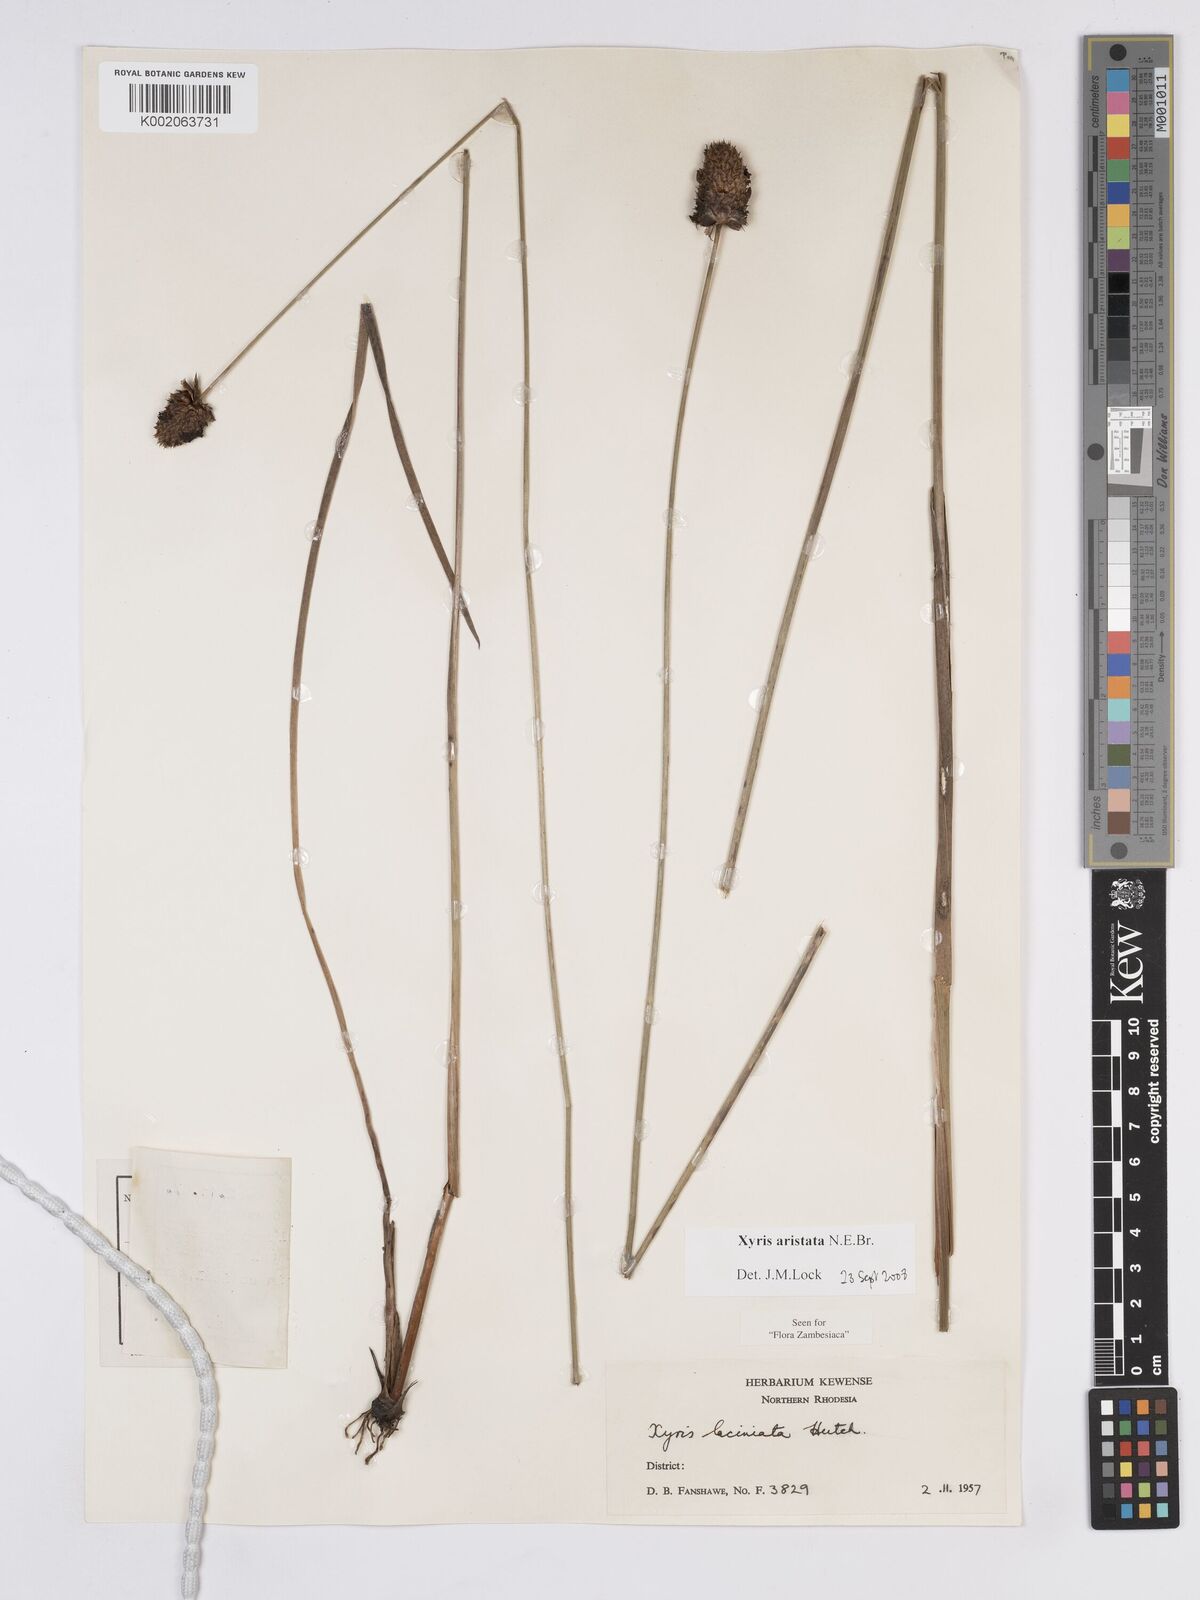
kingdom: Plantae
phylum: Tracheophyta
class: Liliopsida
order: Poales
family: Xyridaceae
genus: Xyris
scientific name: Xyris aristata
